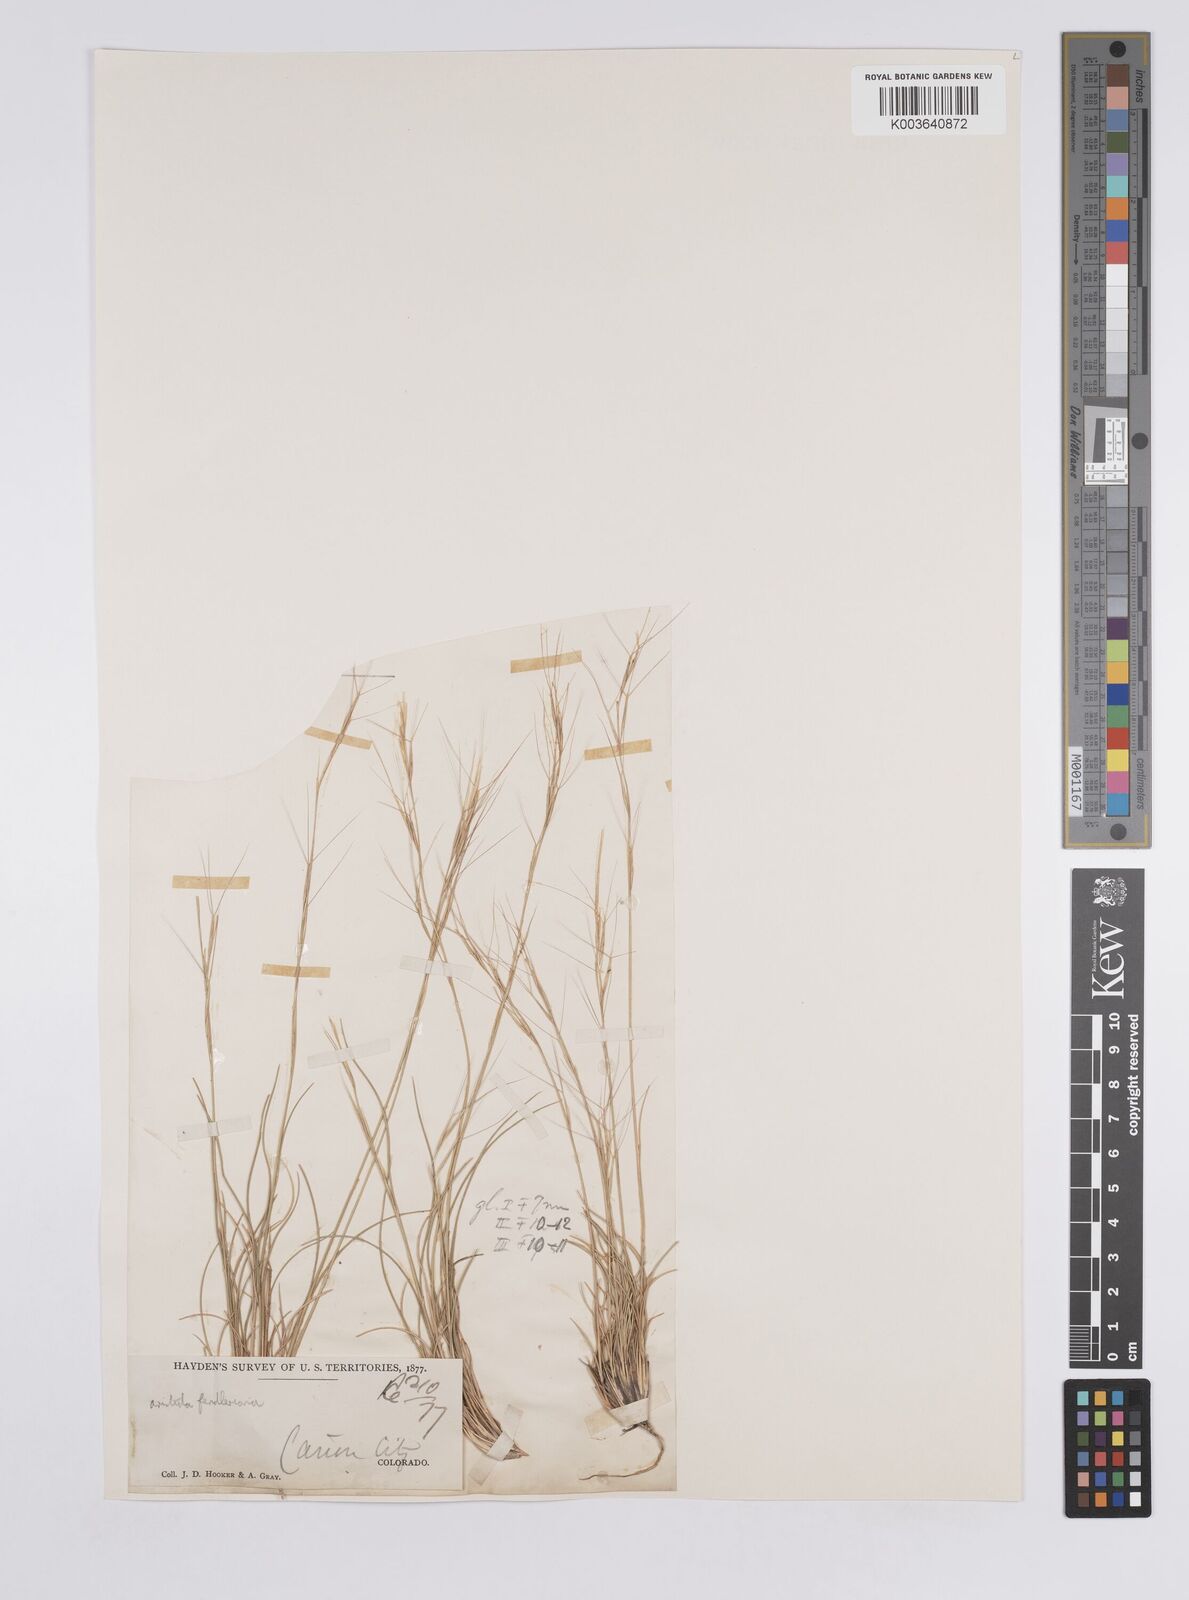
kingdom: Plantae
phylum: Tracheophyta
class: Liliopsida
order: Poales
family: Poaceae
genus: Aristida
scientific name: Aristida purpurea
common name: Purple threeawn
